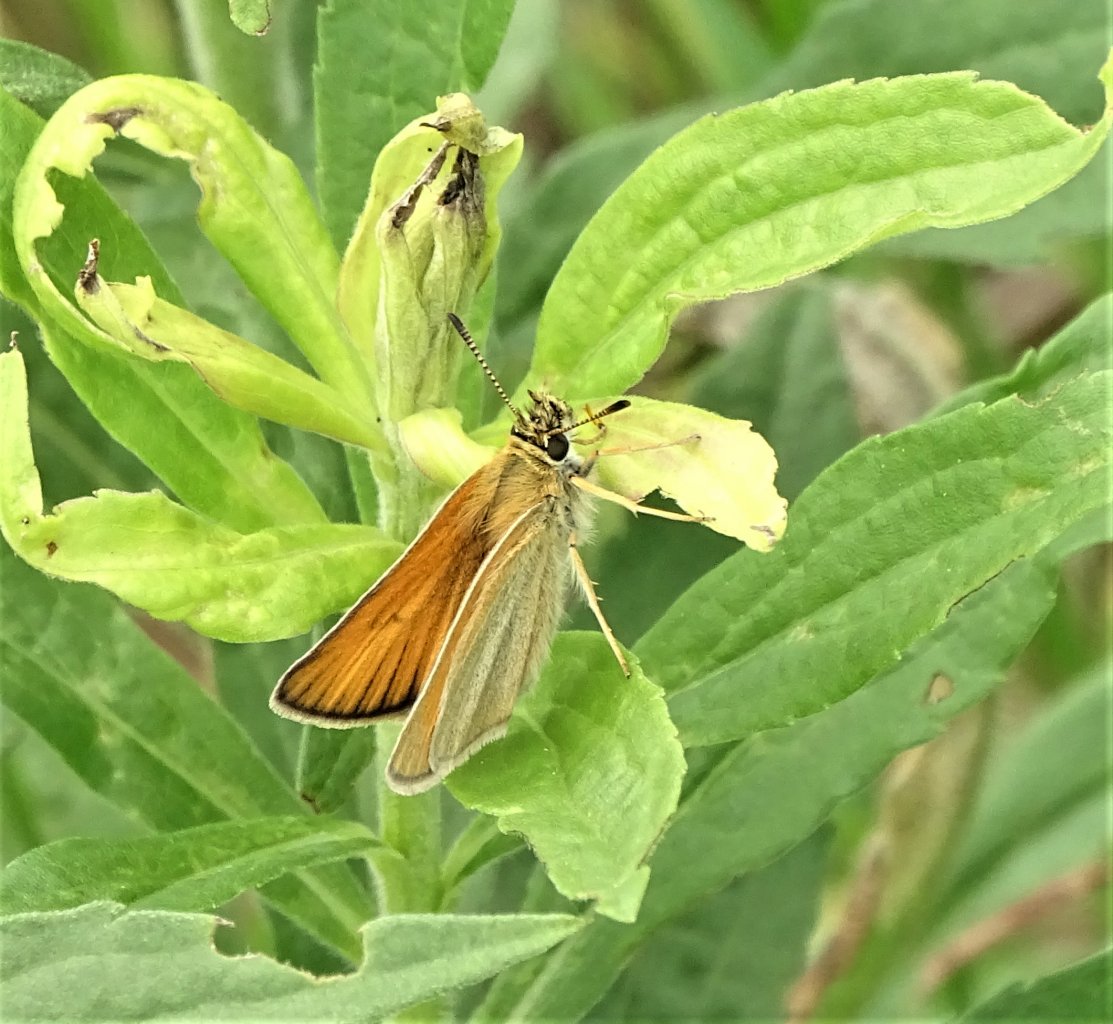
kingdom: Animalia
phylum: Arthropoda
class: Insecta
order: Lepidoptera
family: Hesperiidae
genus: Thymelicus
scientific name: Thymelicus lineola
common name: European Skipper
